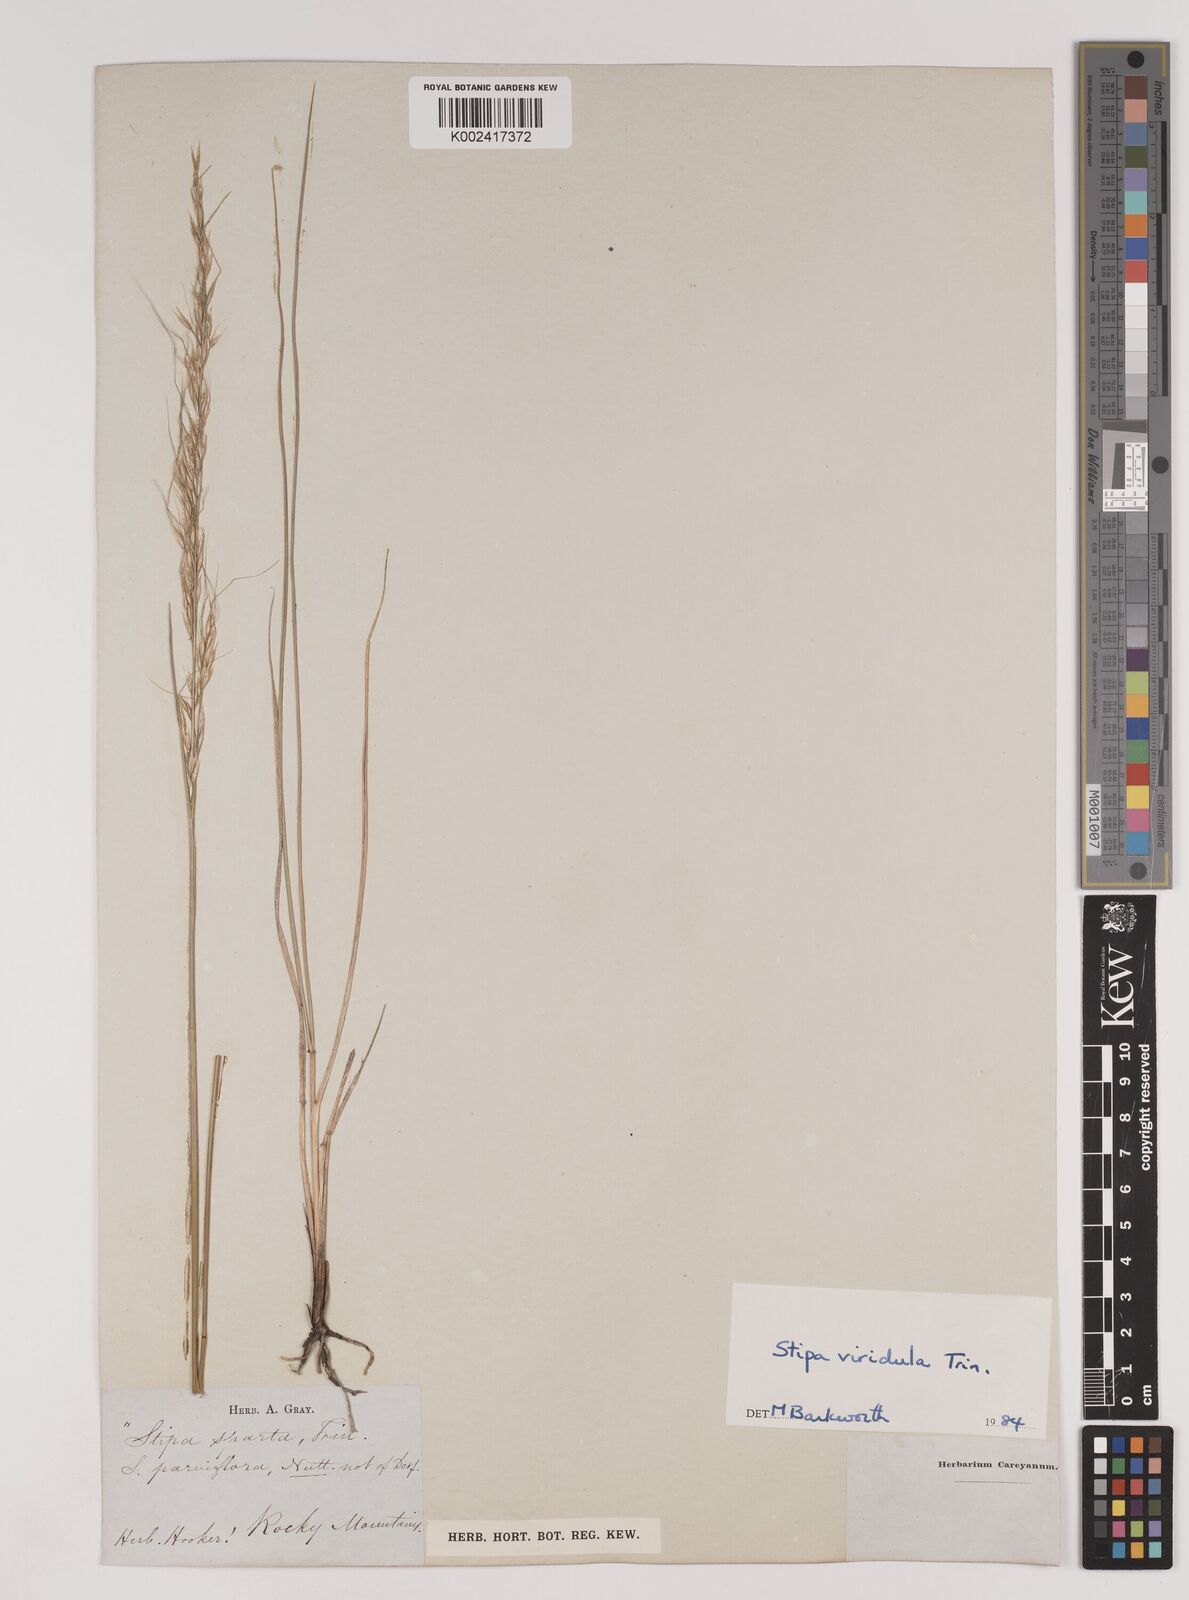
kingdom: Plantae
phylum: Tracheophyta
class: Liliopsida
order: Poales
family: Poaceae
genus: Nassella
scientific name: Nassella viridula
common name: Green needlegrass
